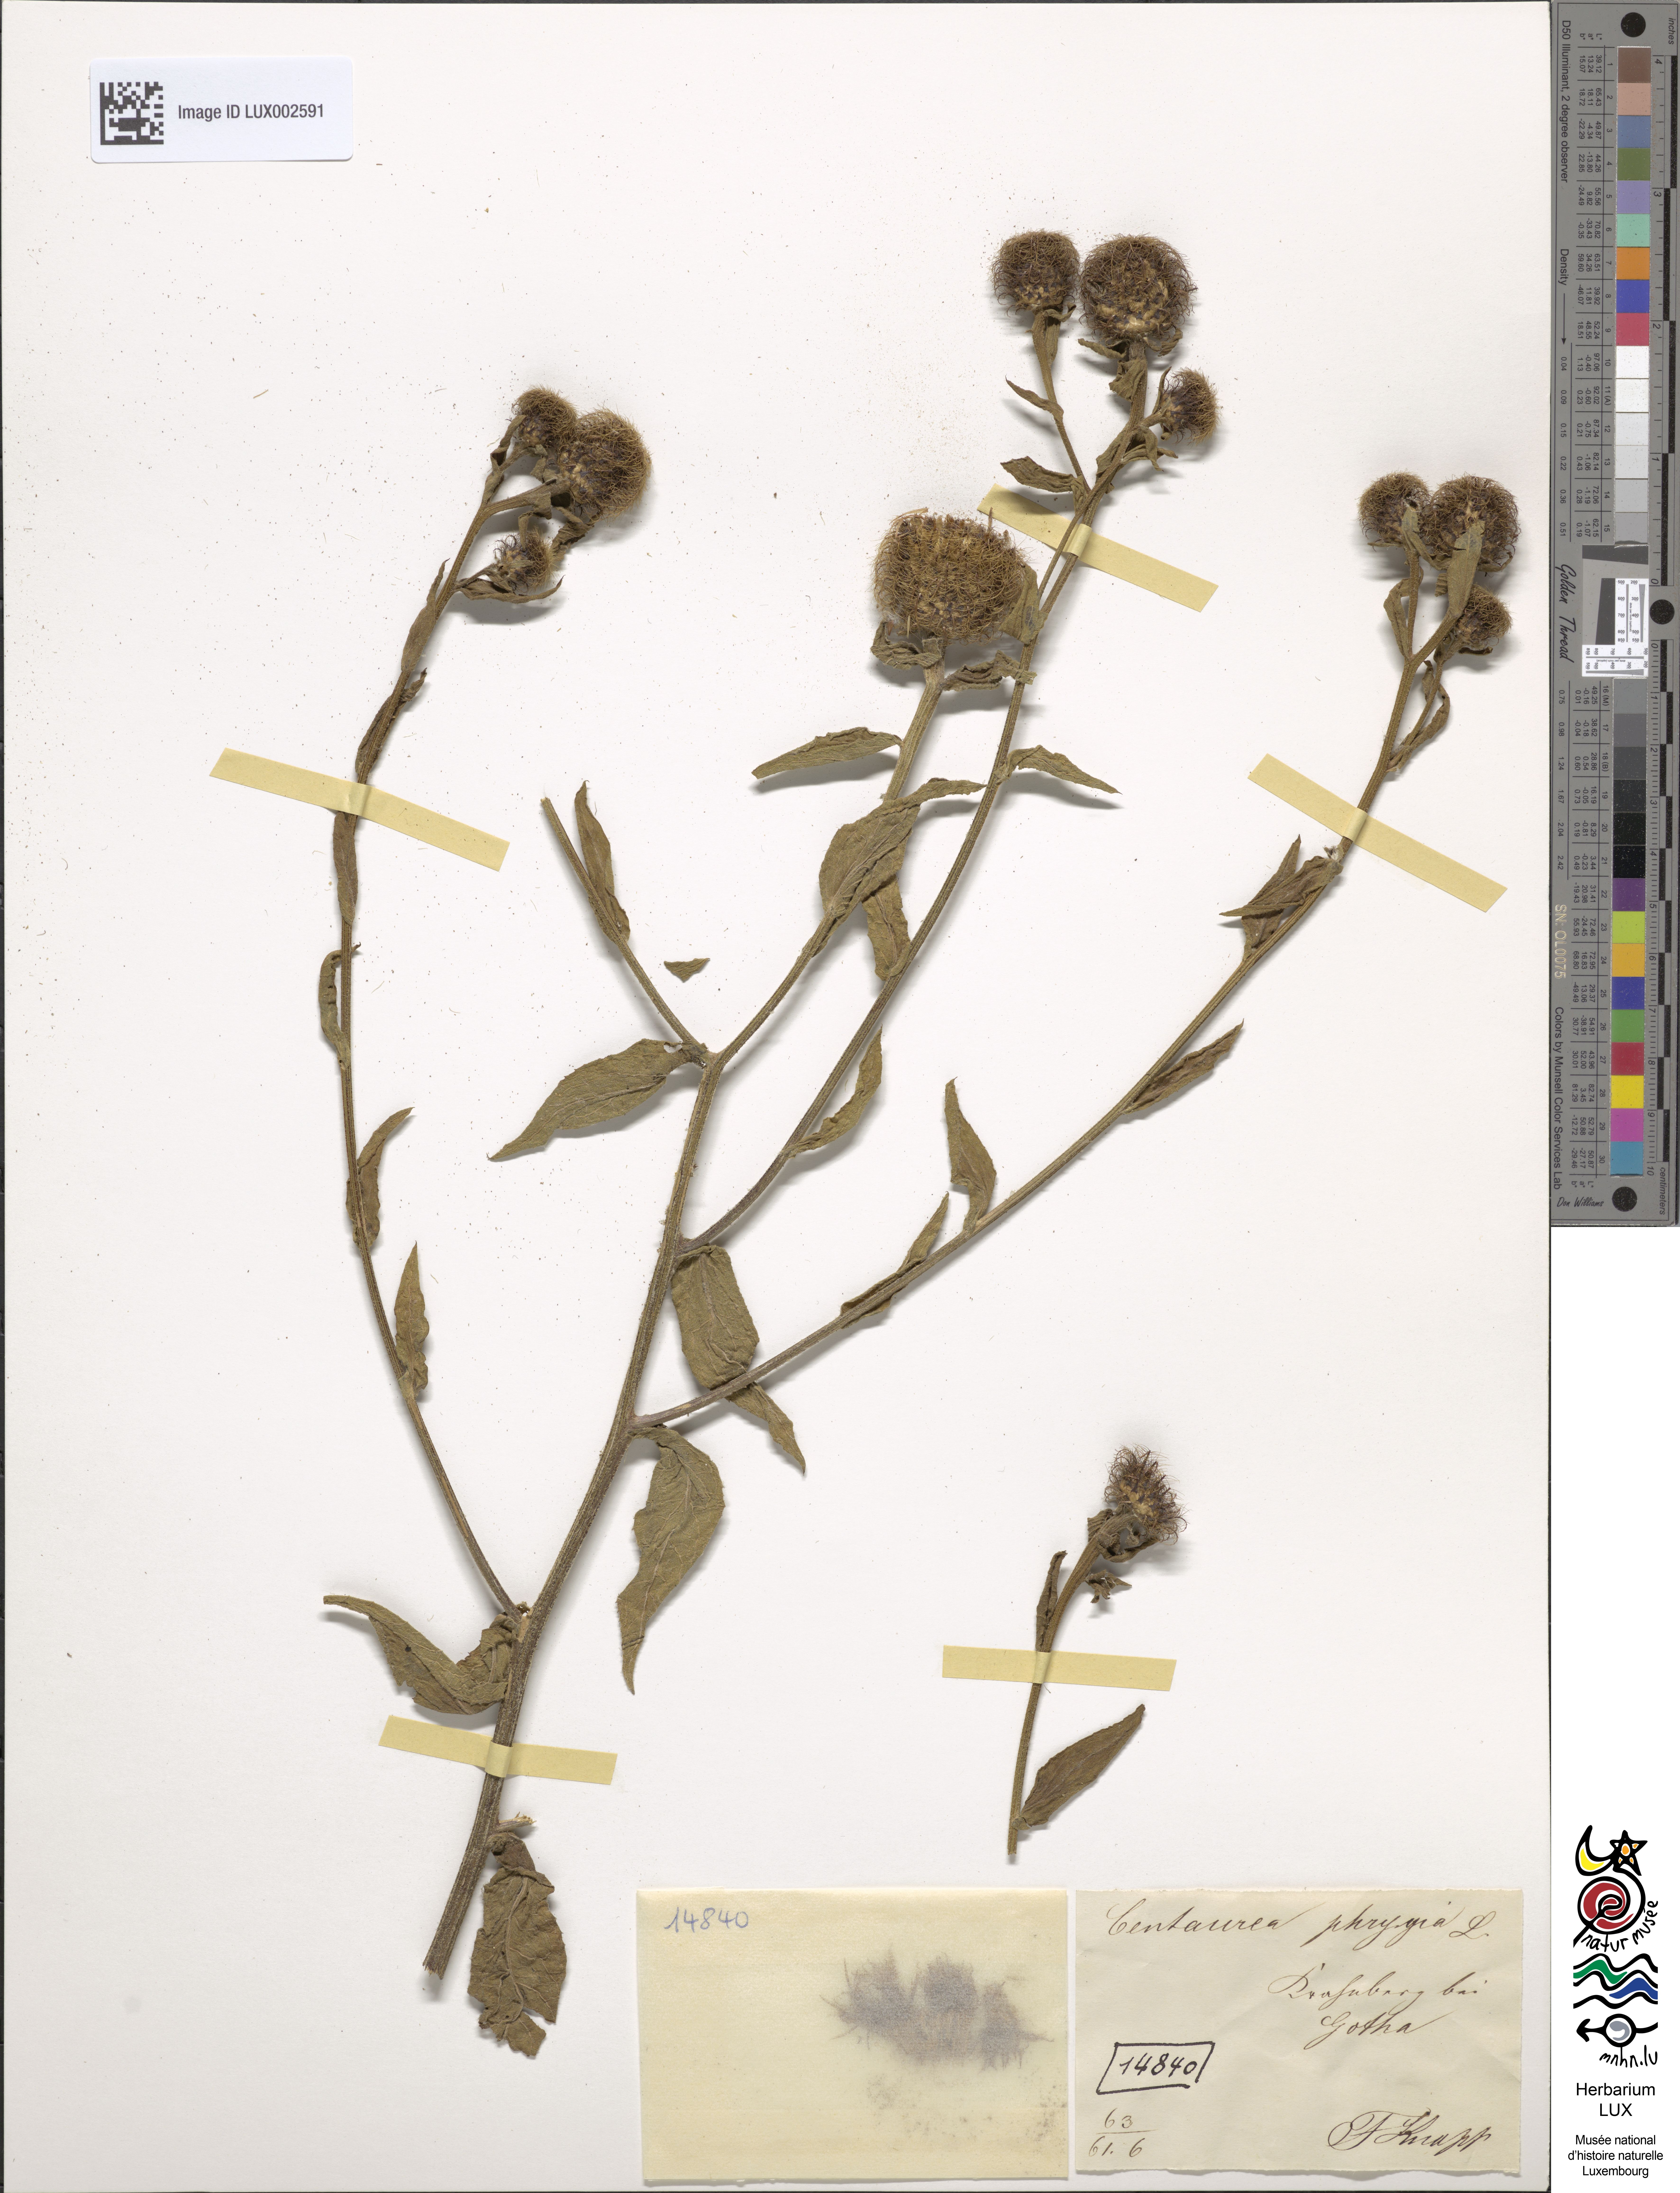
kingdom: Plantae
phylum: Tracheophyta
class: Magnoliopsida
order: Asterales
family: Asteraceae
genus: Centaurea
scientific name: Centaurea phrygia
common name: Wig knapweed
